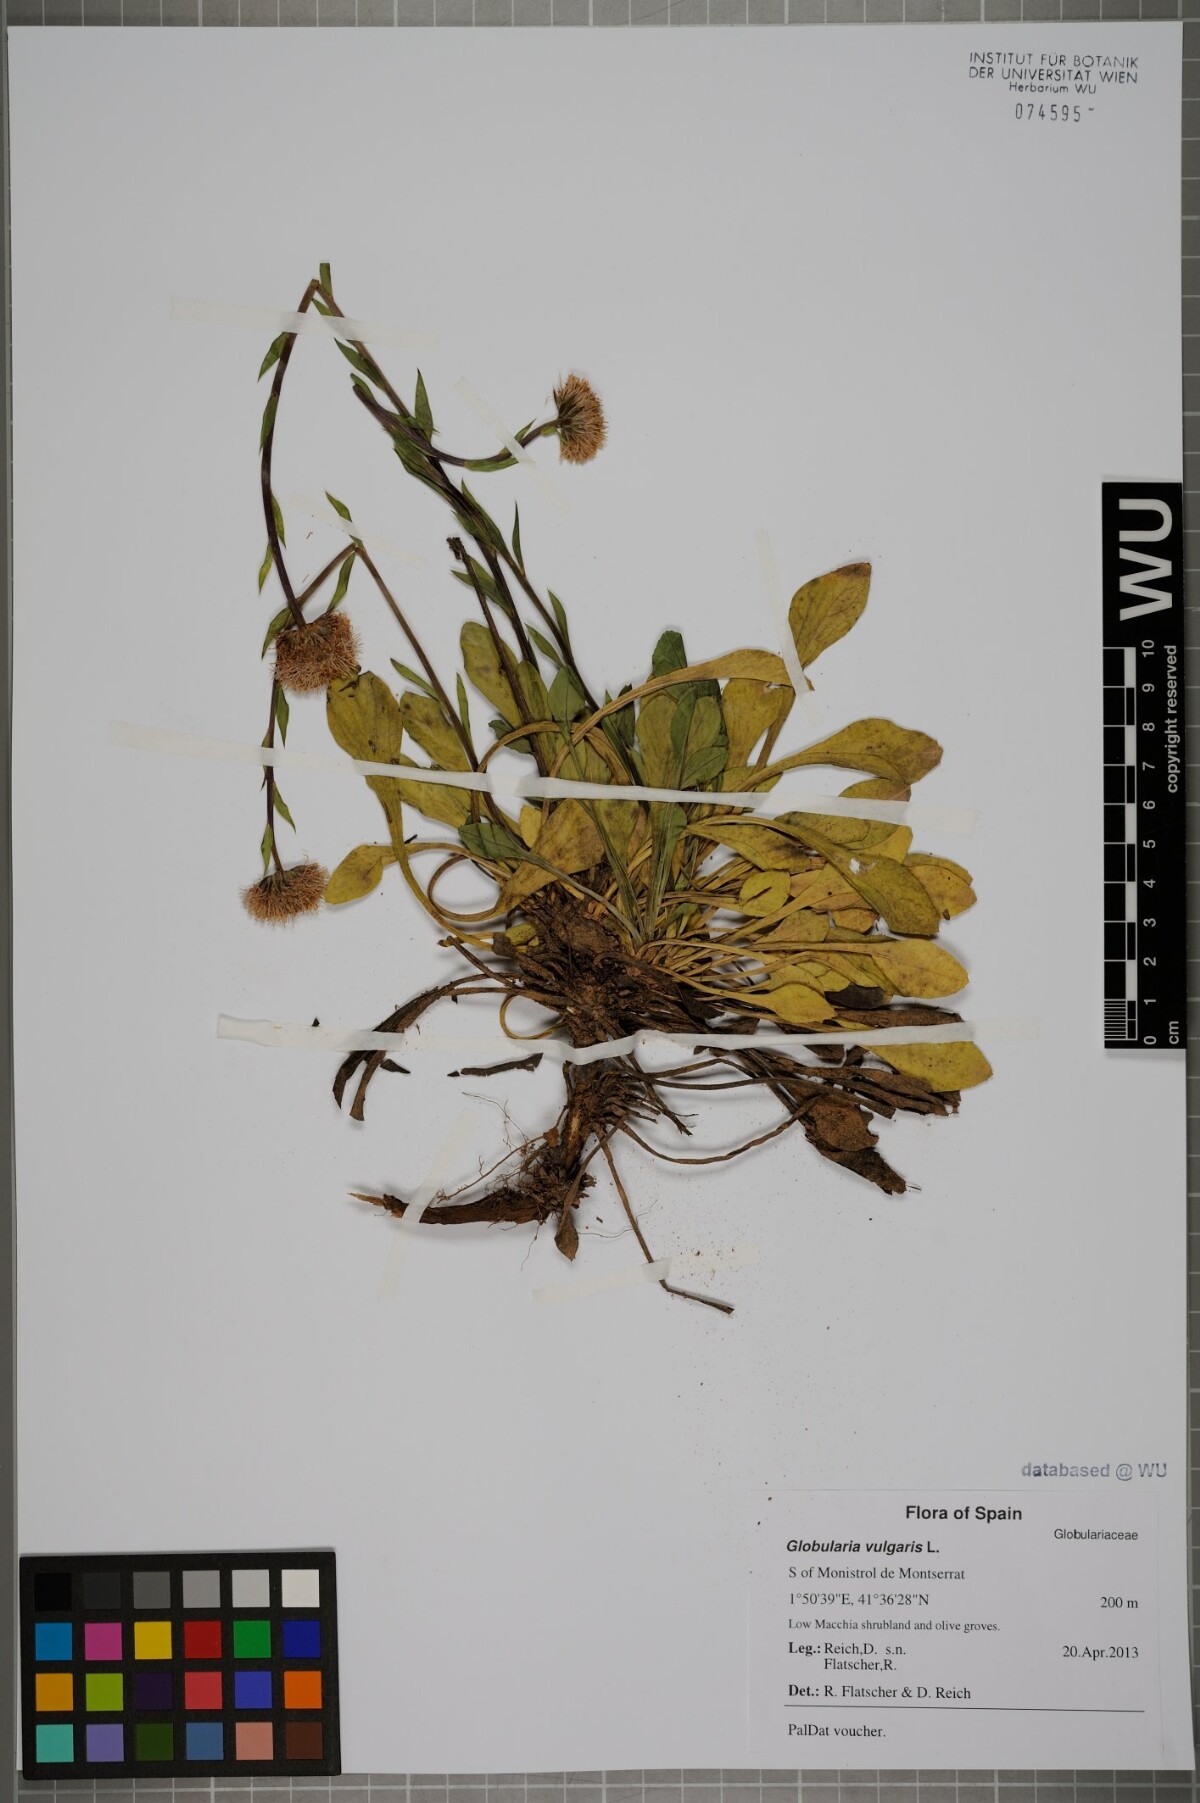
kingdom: Plantae
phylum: Tracheophyta
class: Magnoliopsida
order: Lamiales
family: Plantaginaceae
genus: Globularia
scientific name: Globularia vulgaris
